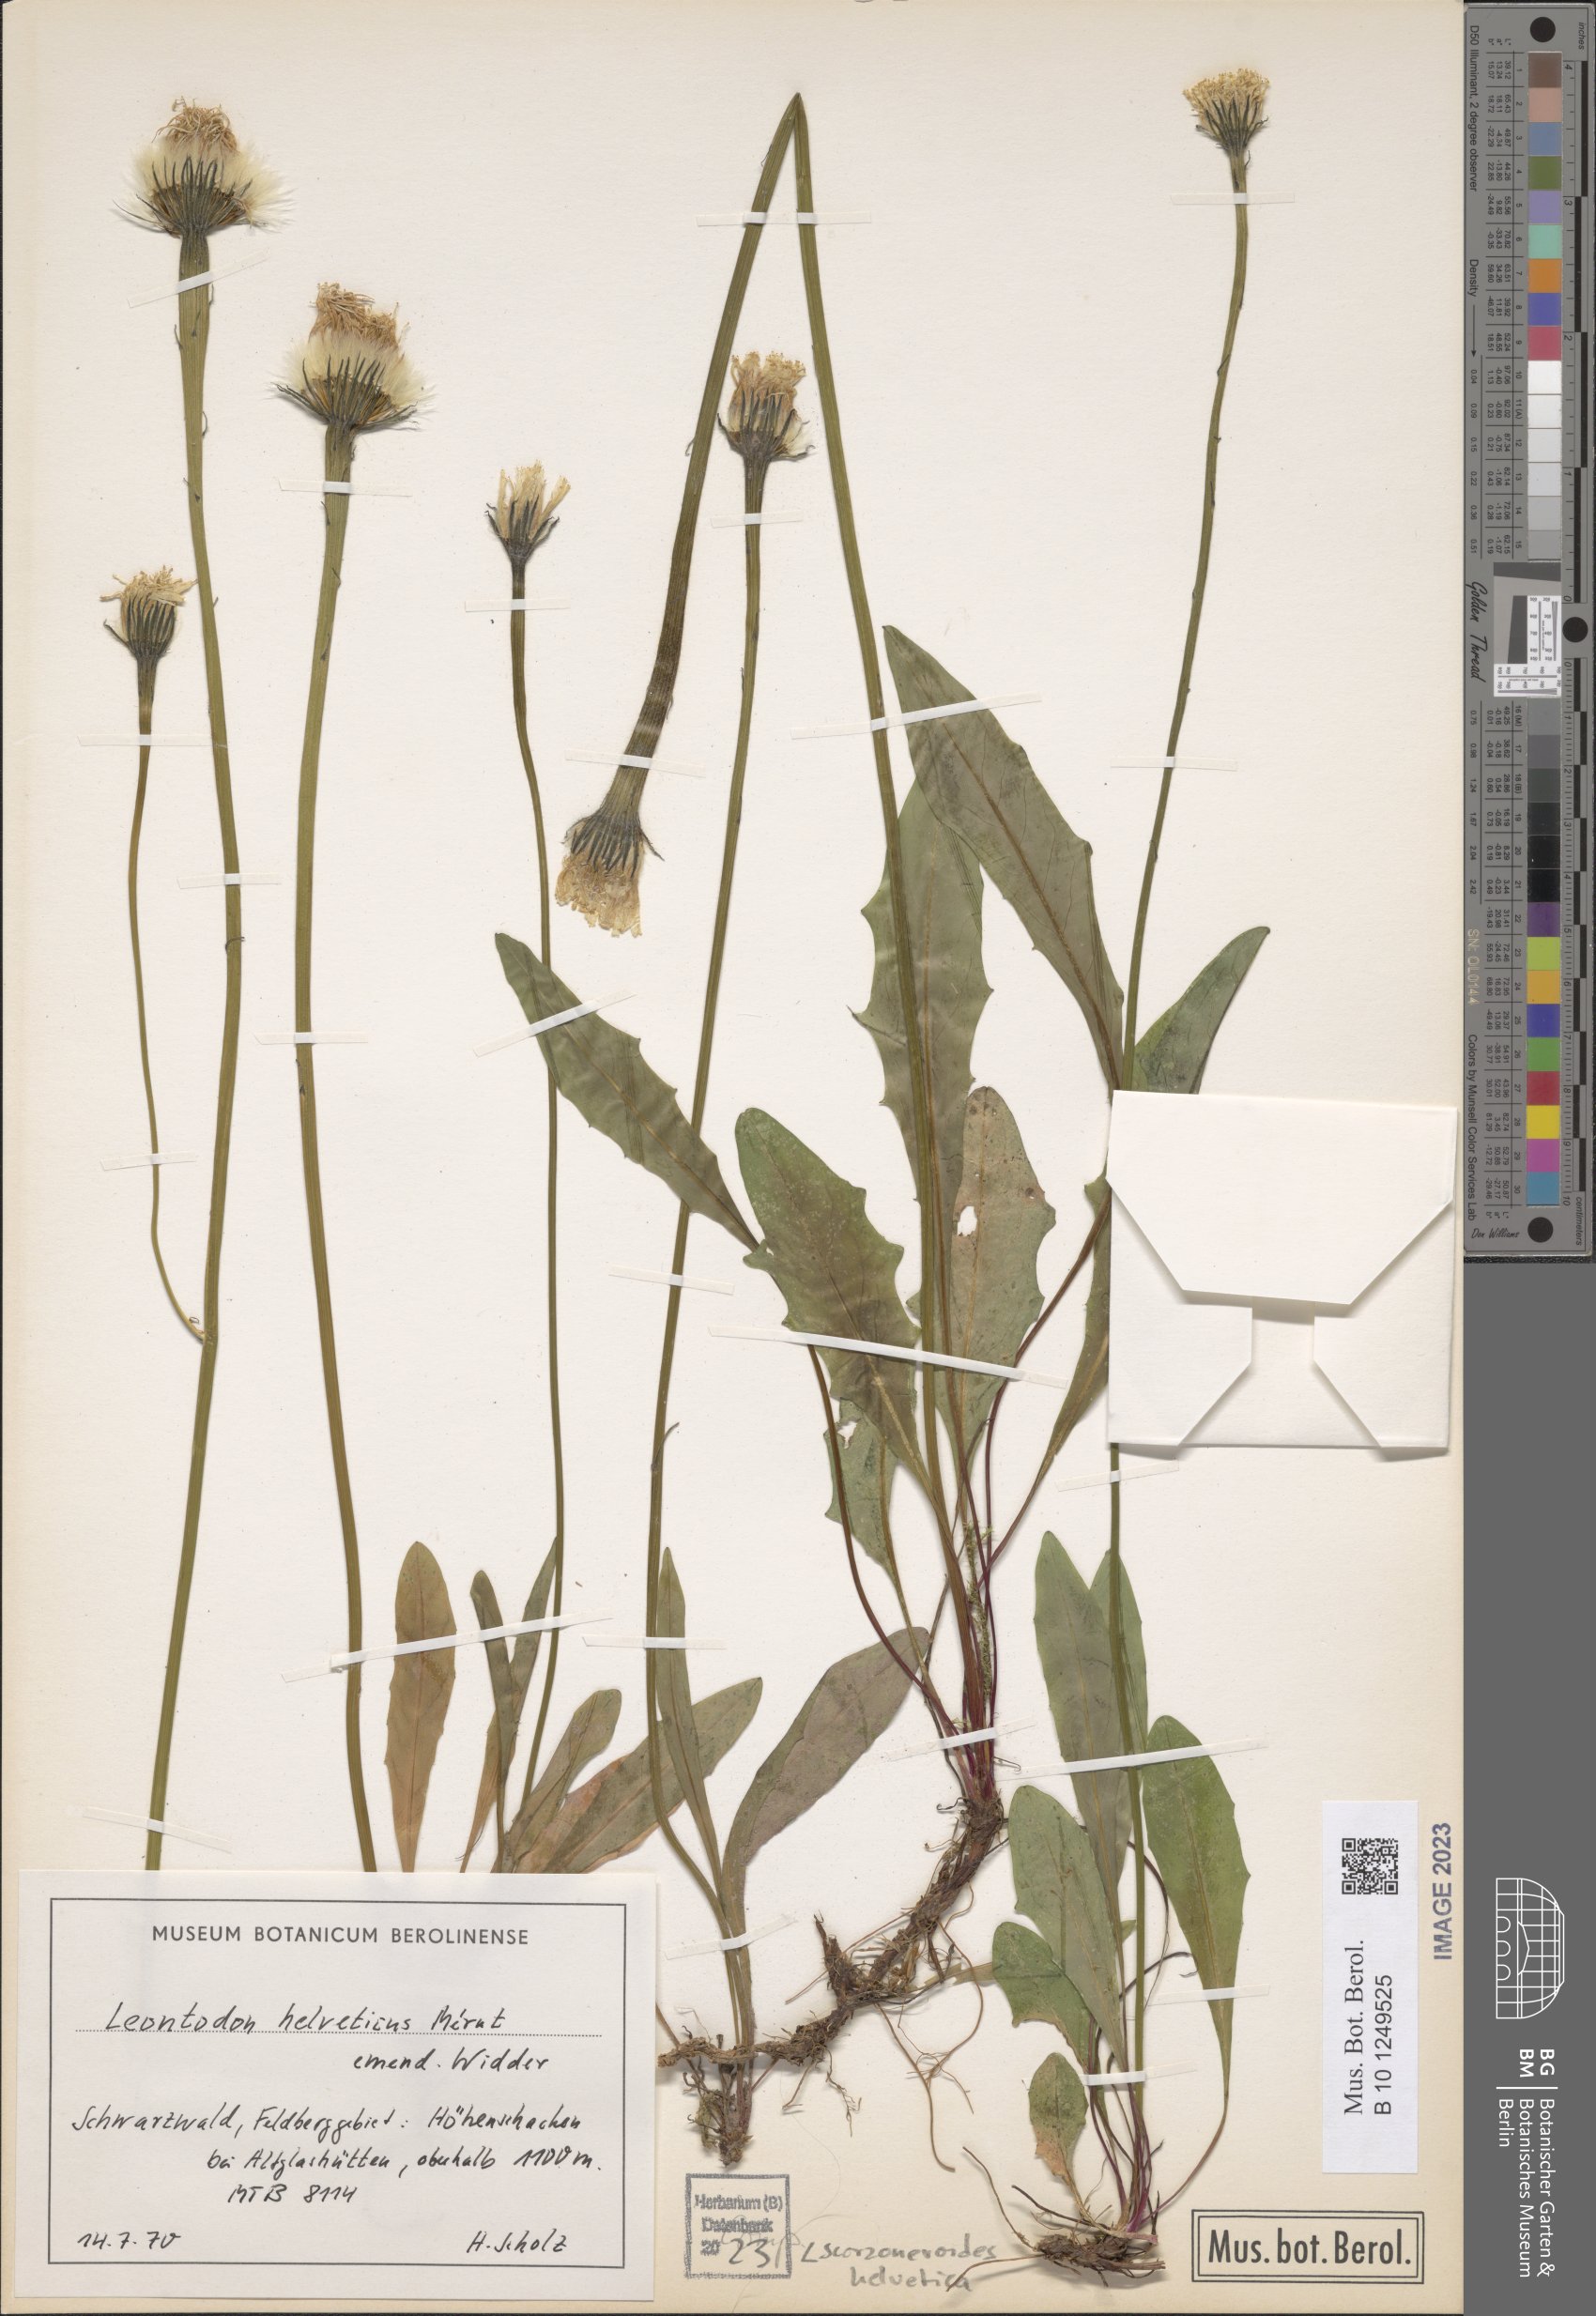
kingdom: Plantae
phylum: Tracheophyta
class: Magnoliopsida
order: Asterales
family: Asteraceae
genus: Scorzoneroides
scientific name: Scorzoneroides helvetica
